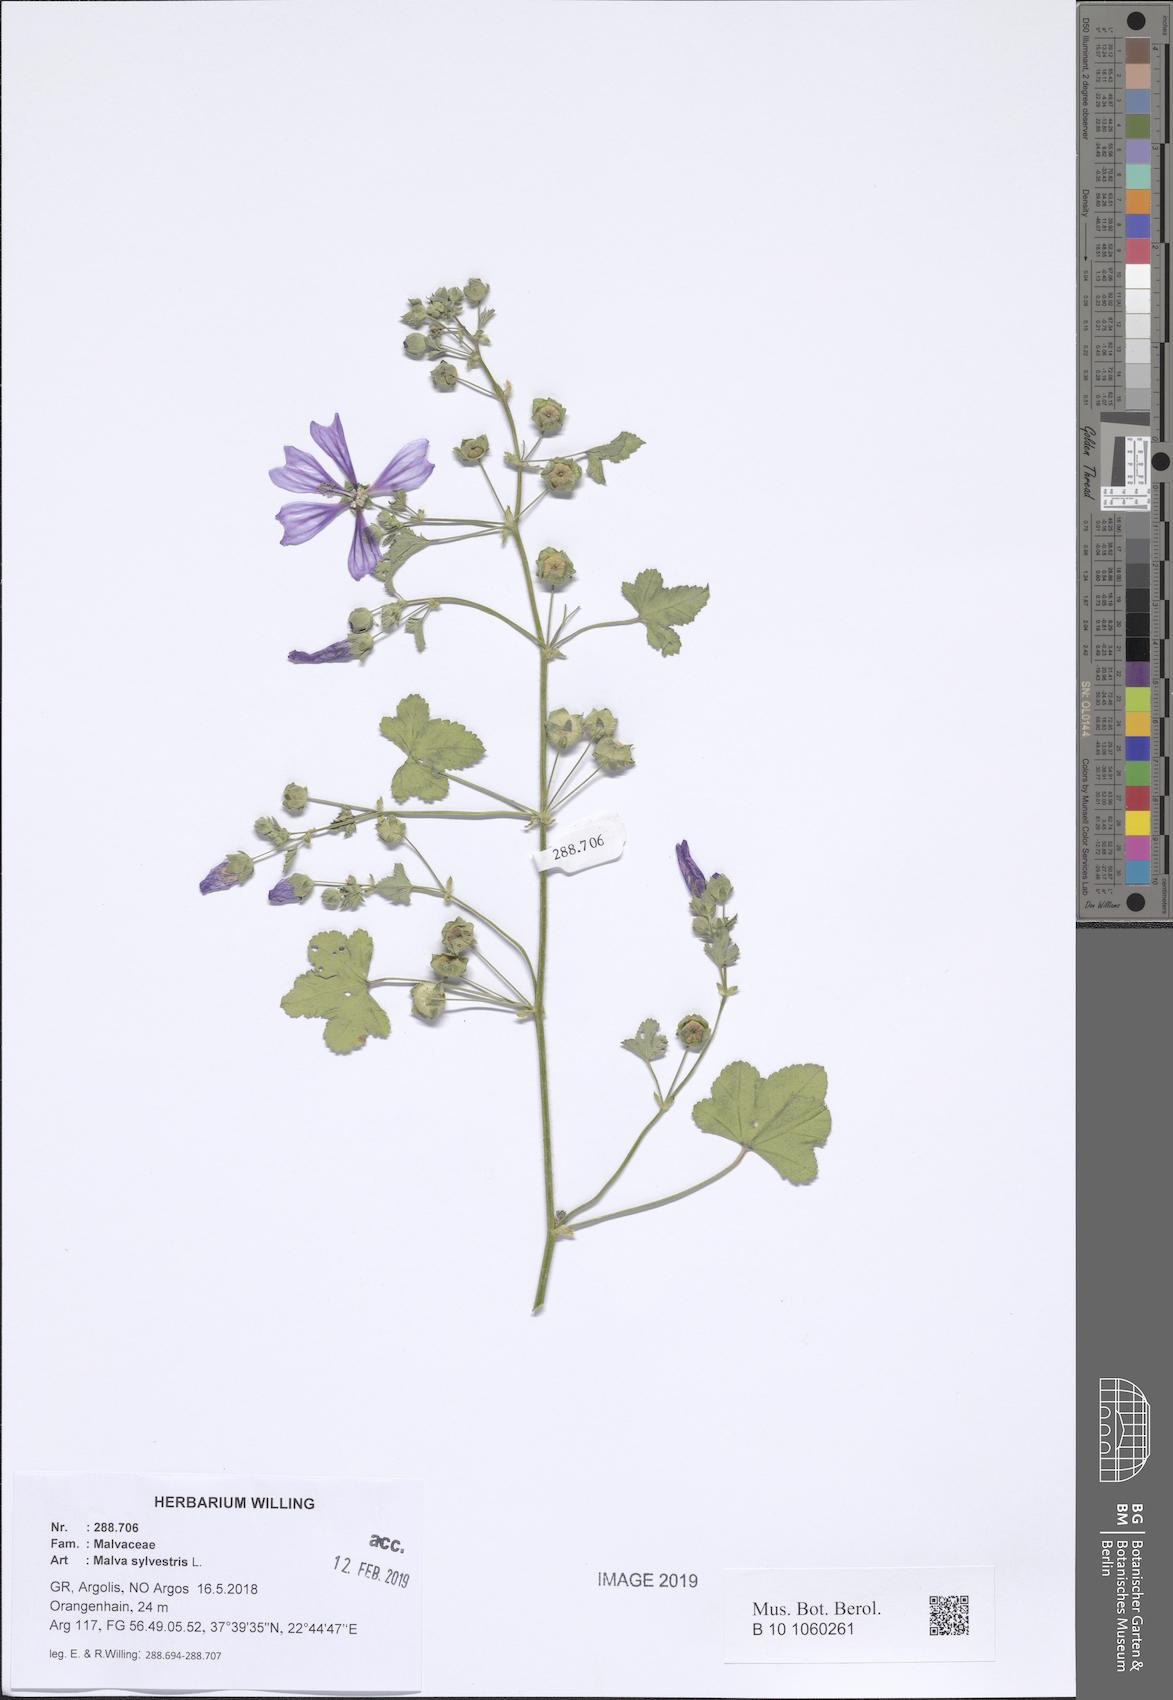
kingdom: Plantae
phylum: Tracheophyta
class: Magnoliopsida
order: Malvales
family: Malvaceae
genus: Malva
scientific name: Malva sylvestris
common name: Common mallow
